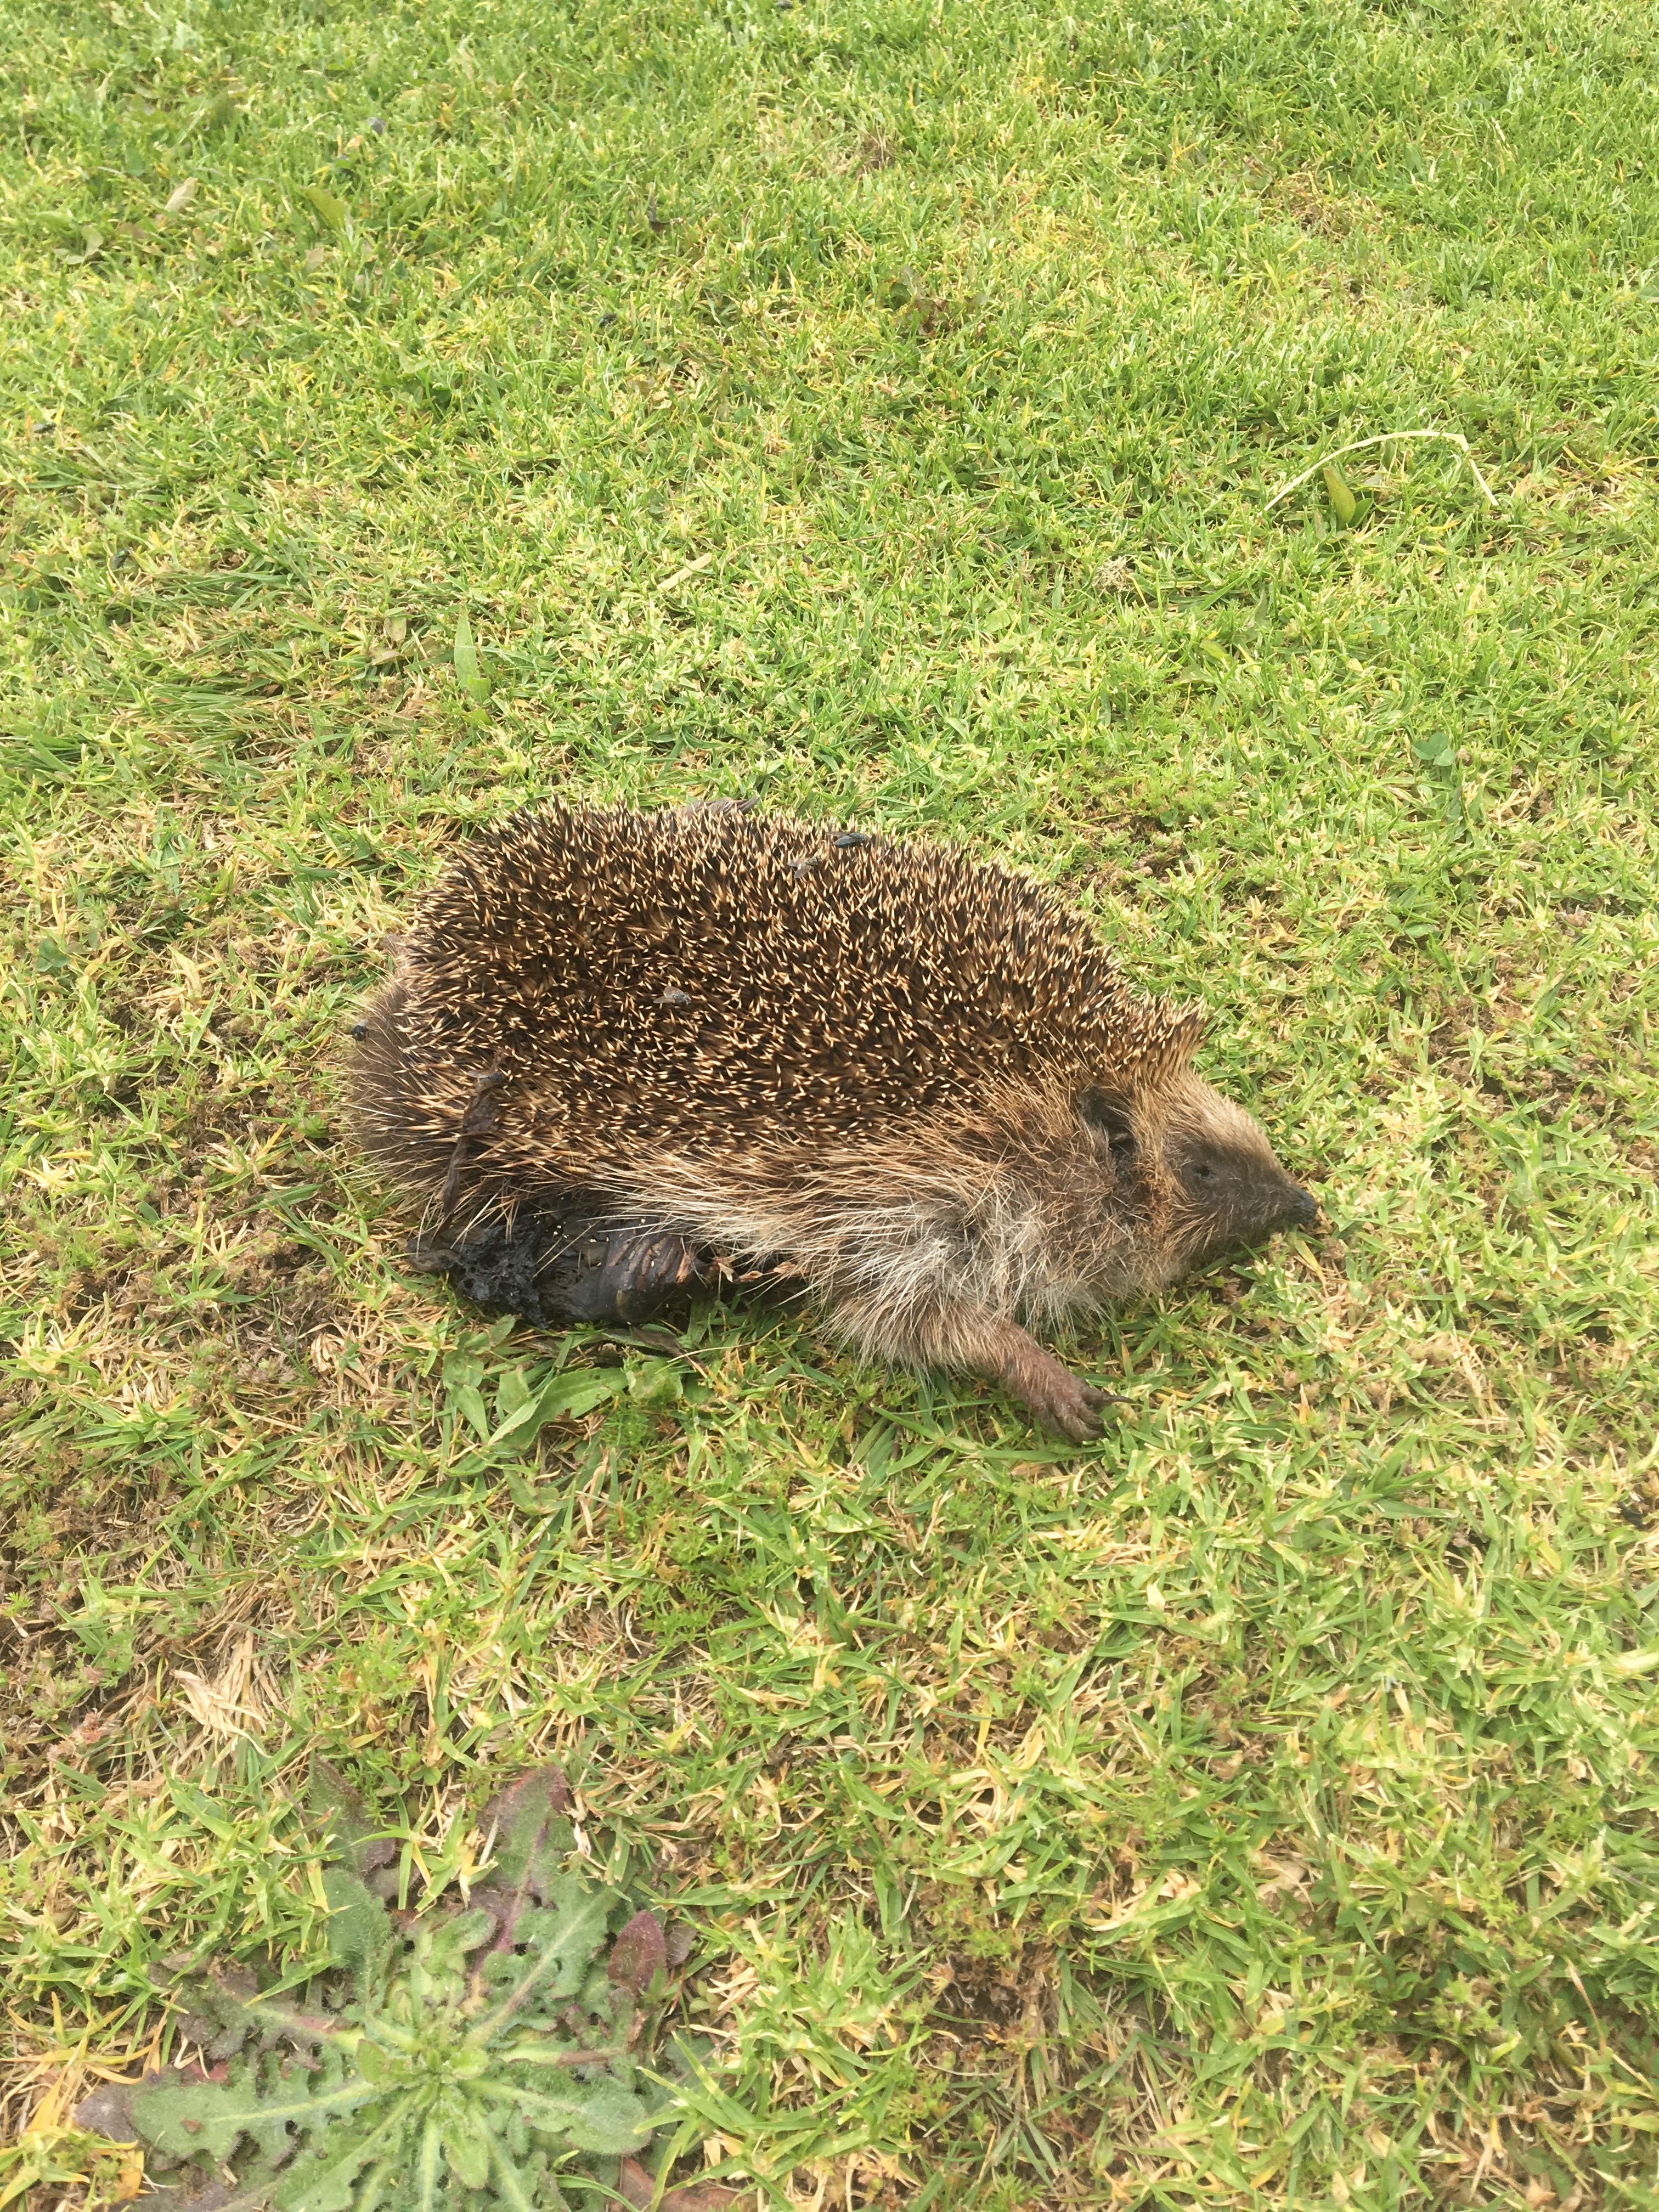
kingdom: Animalia
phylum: Chordata
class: Mammalia
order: Erinaceomorpha
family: Erinaceidae
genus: Erinaceus
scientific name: Erinaceus
